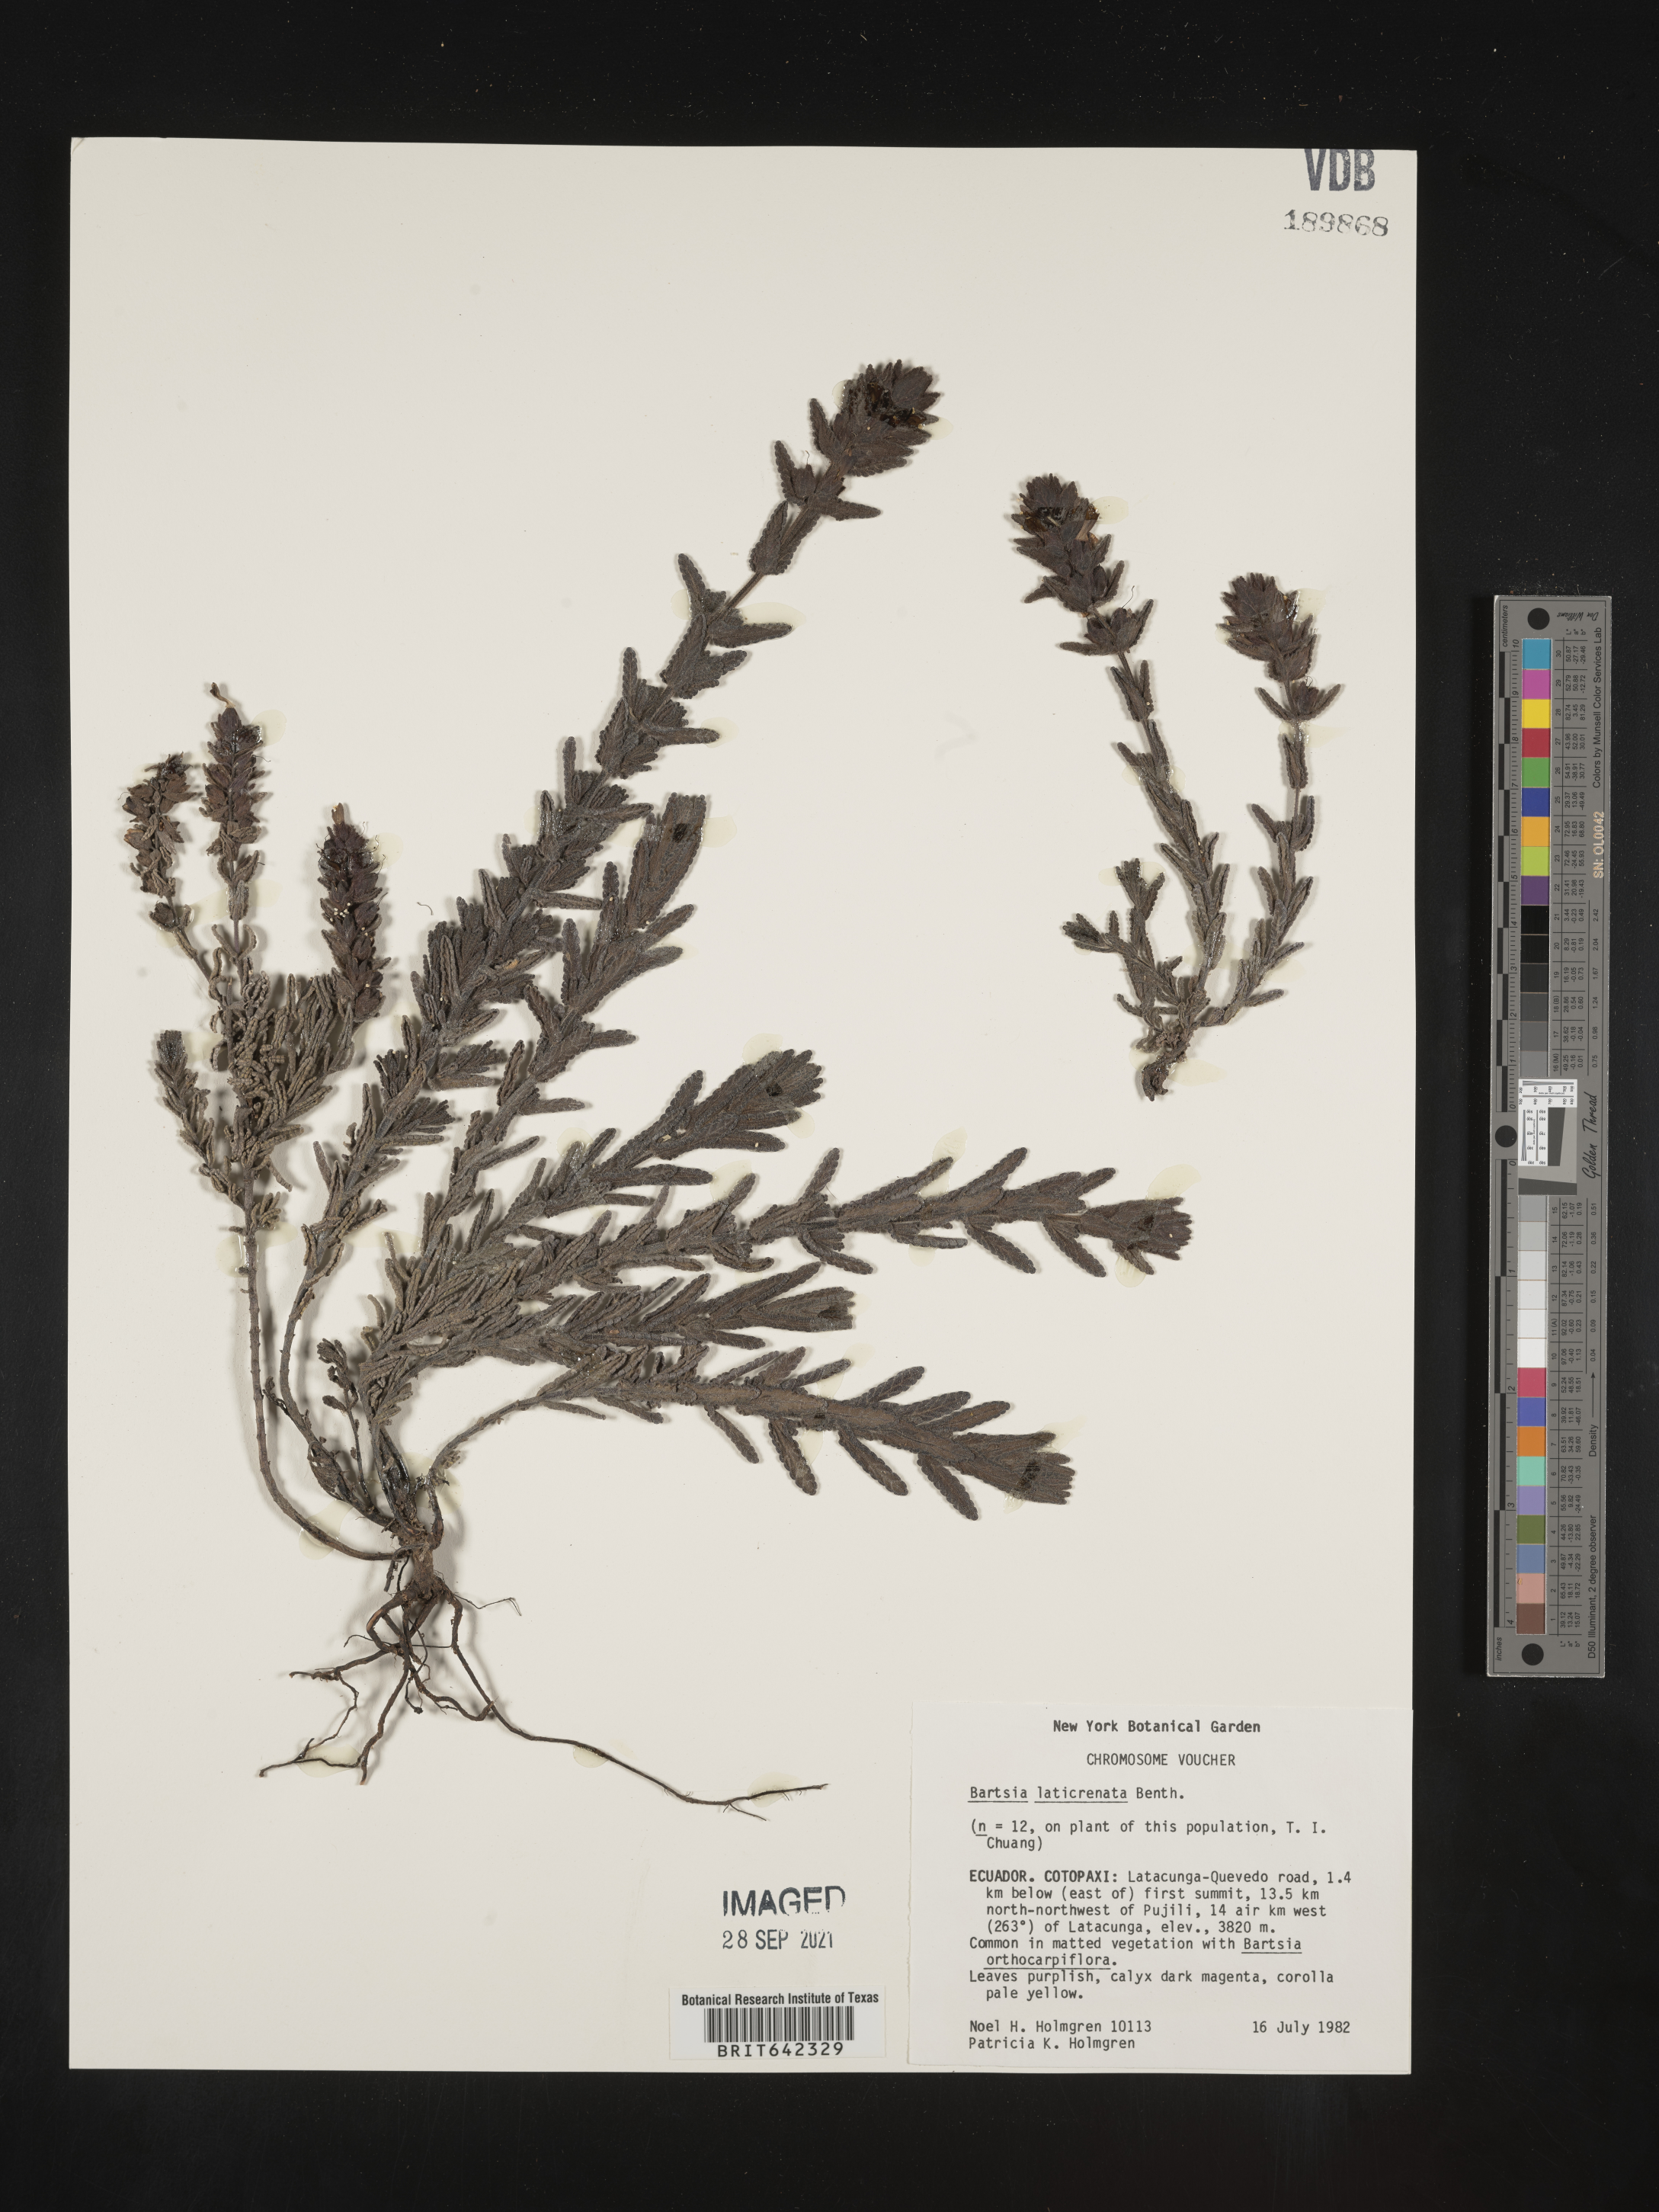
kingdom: Plantae
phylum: Tracheophyta
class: Magnoliopsida
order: Lamiales
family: Orobanchaceae
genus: Bartsia
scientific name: Bartsia
